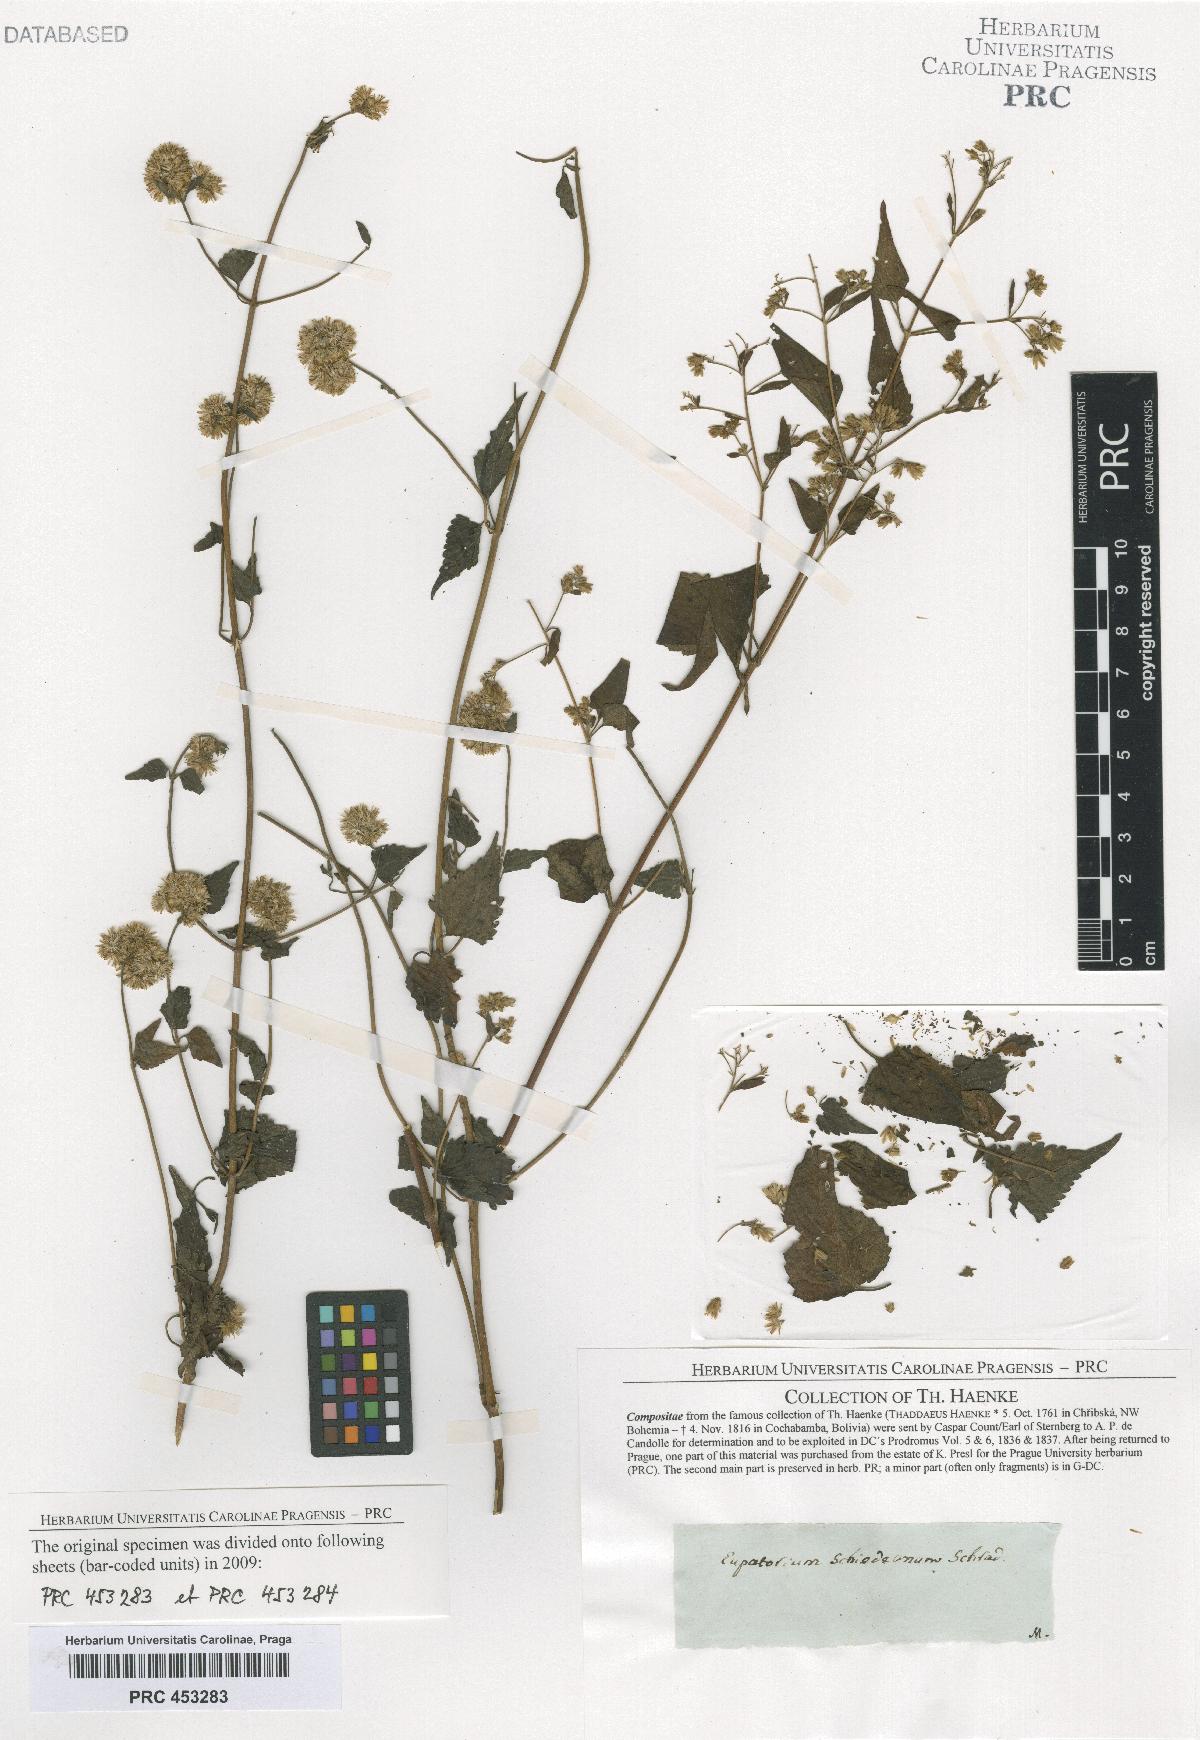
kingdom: Plantae
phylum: Tracheophyta
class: Magnoliopsida
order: Asterales
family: Asteraceae
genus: Fleischmannia
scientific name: Fleischmannia pycnocephala
